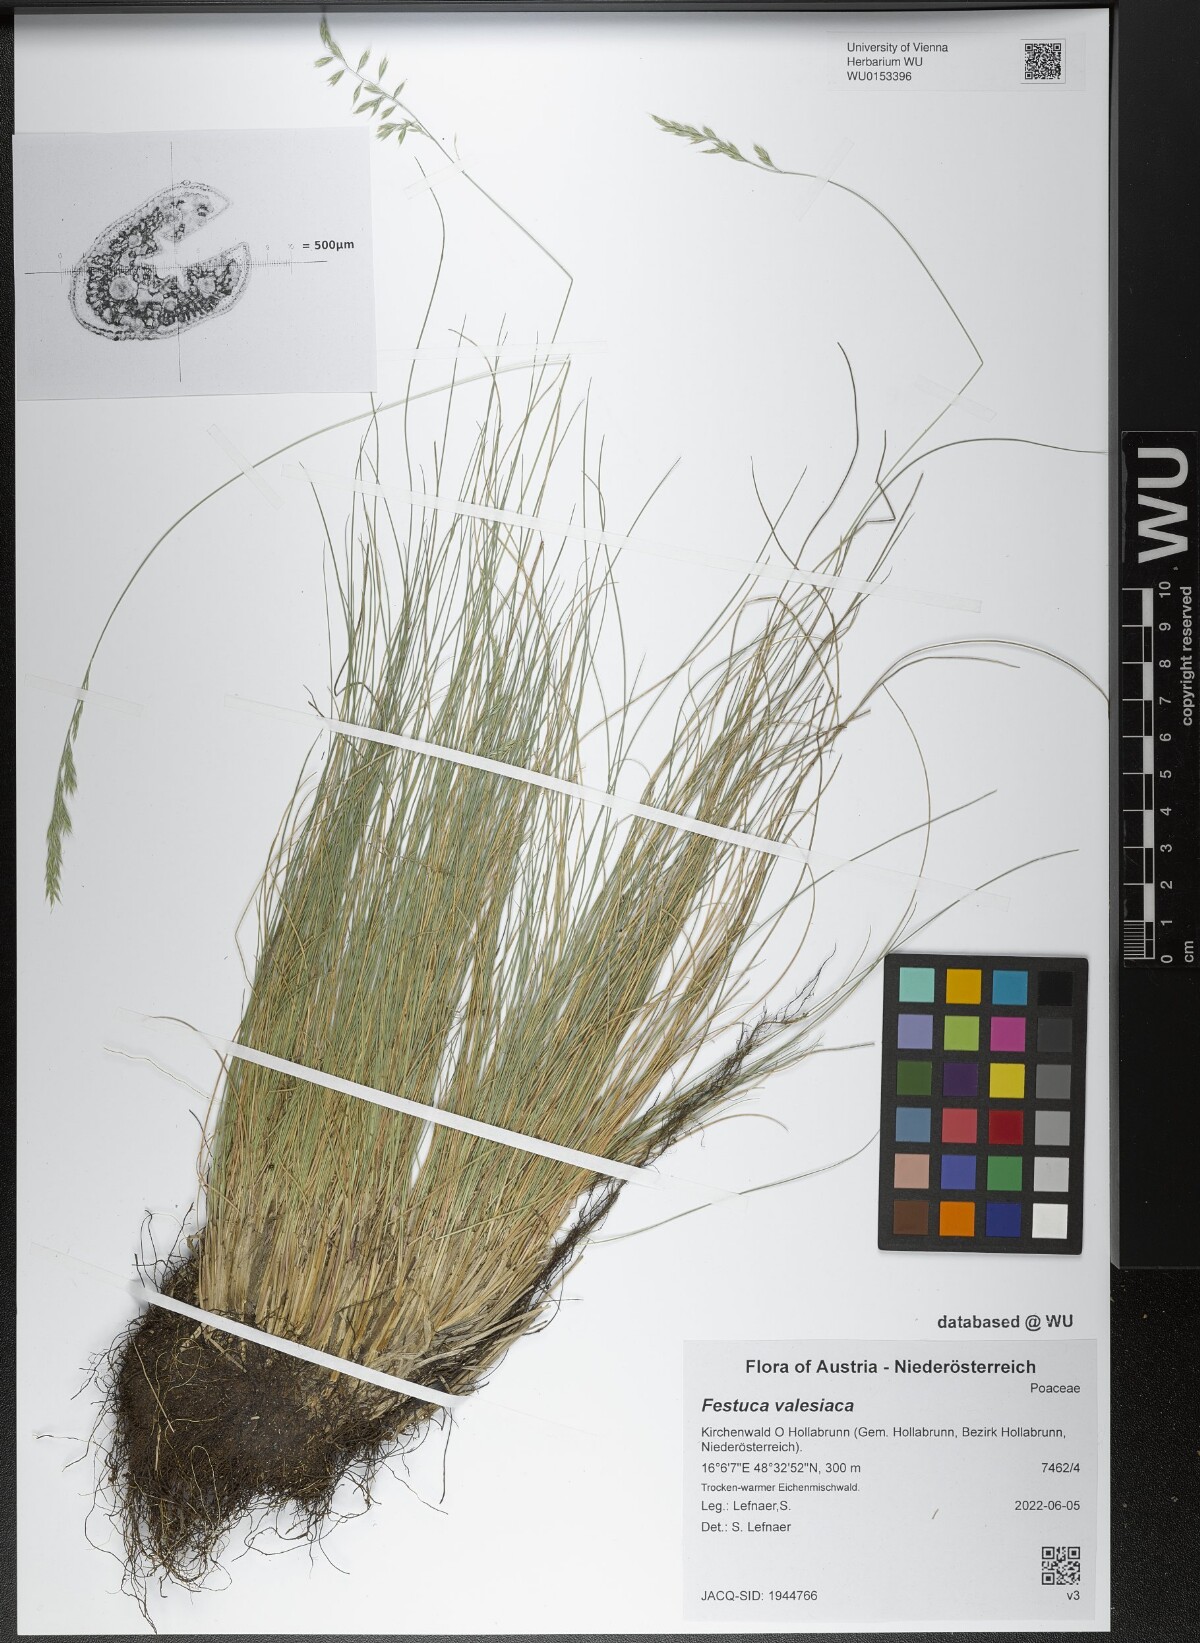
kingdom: Plantae
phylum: Tracheophyta
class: Liliopsida
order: Poales
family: Poaceae
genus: Festuca
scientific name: Festuca valesiaca
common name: Volga fescue
